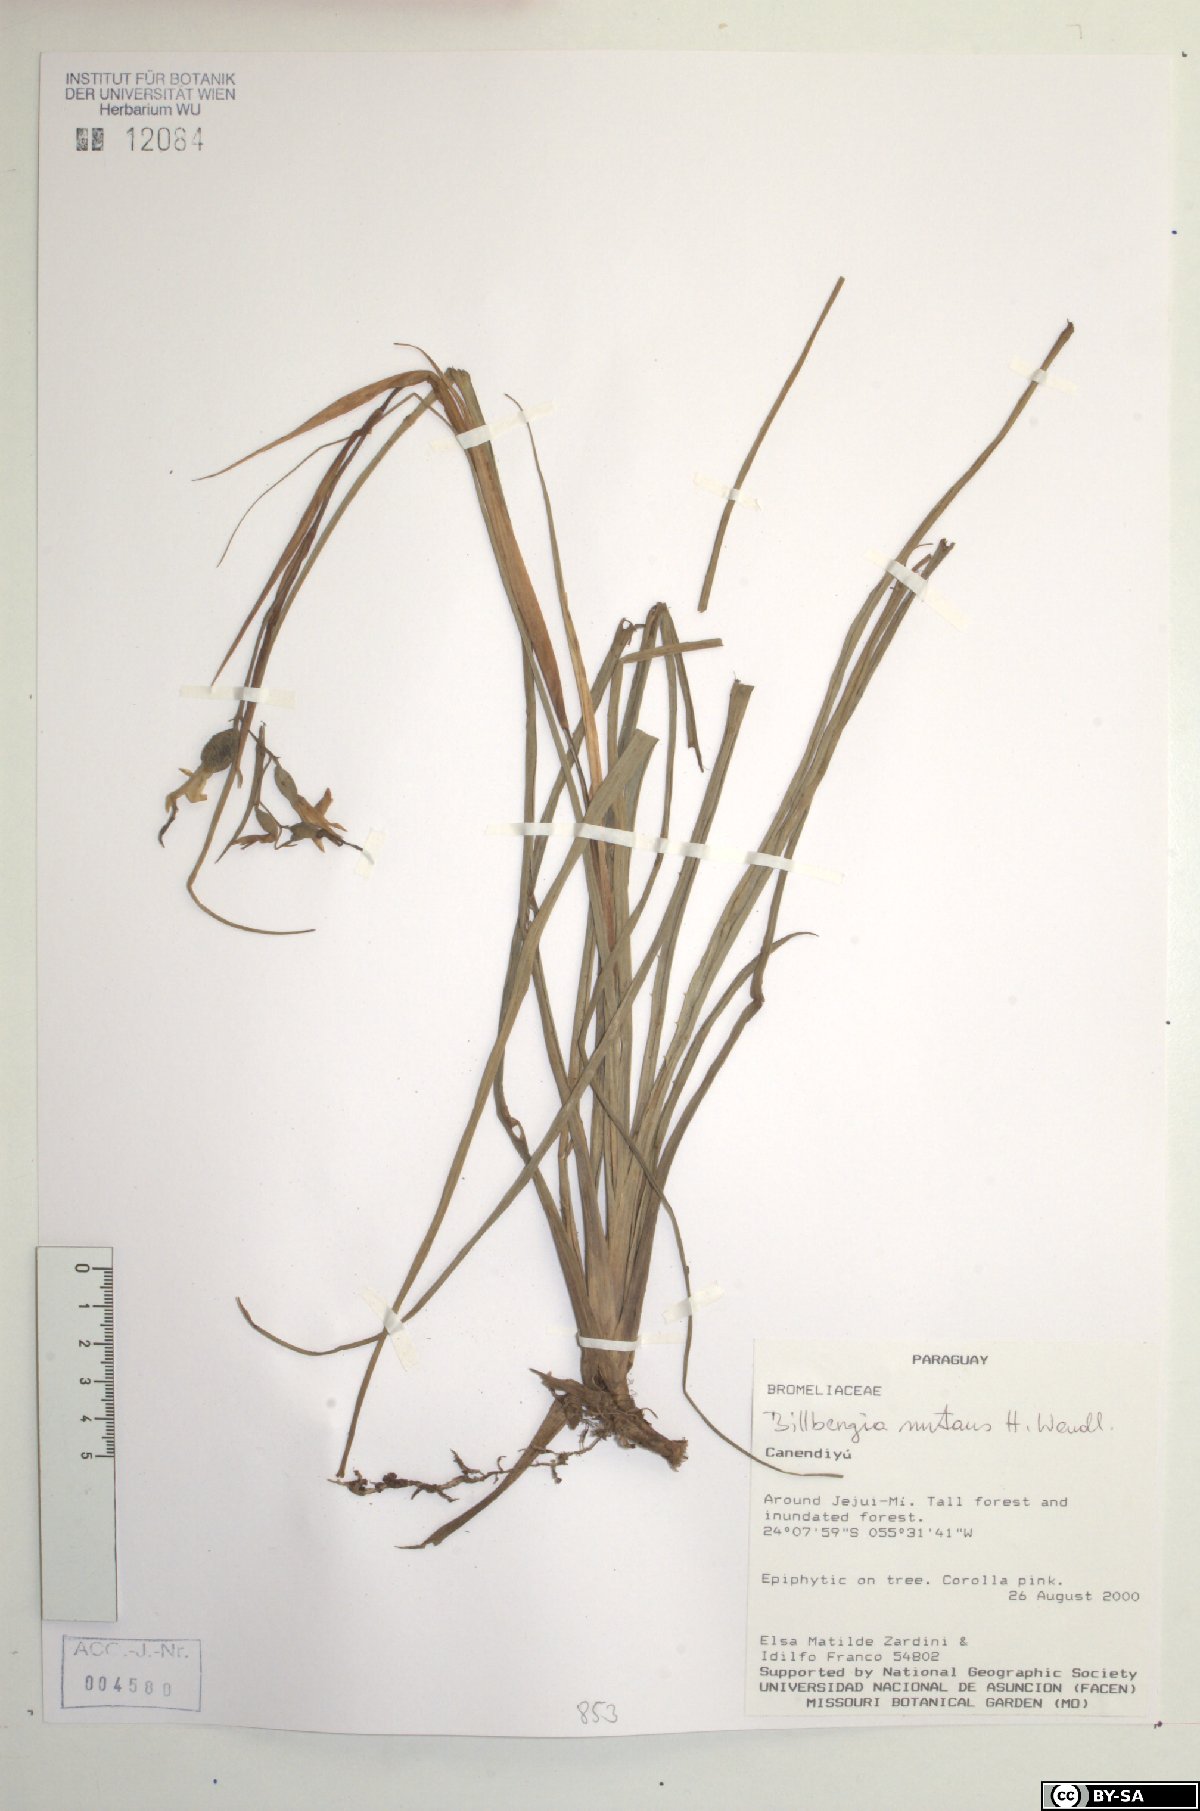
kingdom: Plantae
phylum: Tracheophyta
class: Liliopsida
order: Poales
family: Bromeliaceae
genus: Billbergia
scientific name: Billbergia nutans
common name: Friendship-plant
